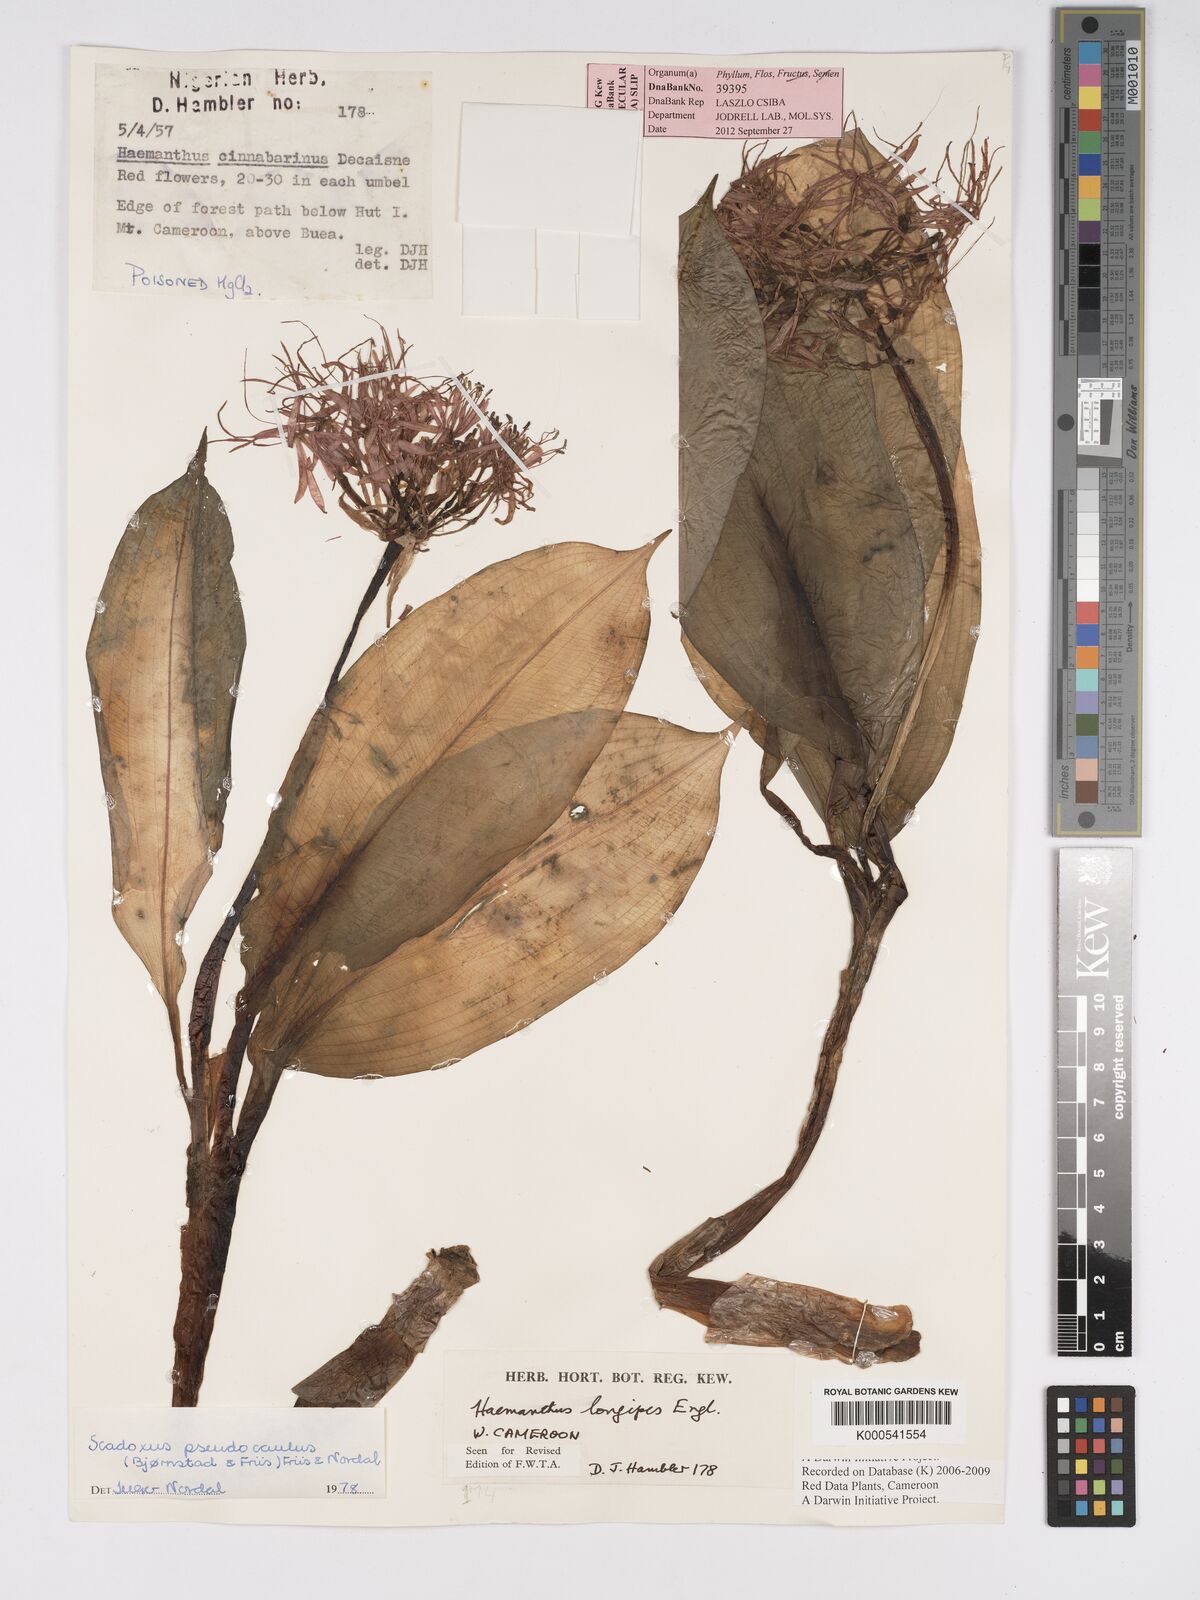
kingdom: Plantae
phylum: Tracheophyta
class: Liliopsida
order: Asparagales
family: Amaryllidaceae
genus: Scadoxus
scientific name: Scadoxus pseudocaulus
